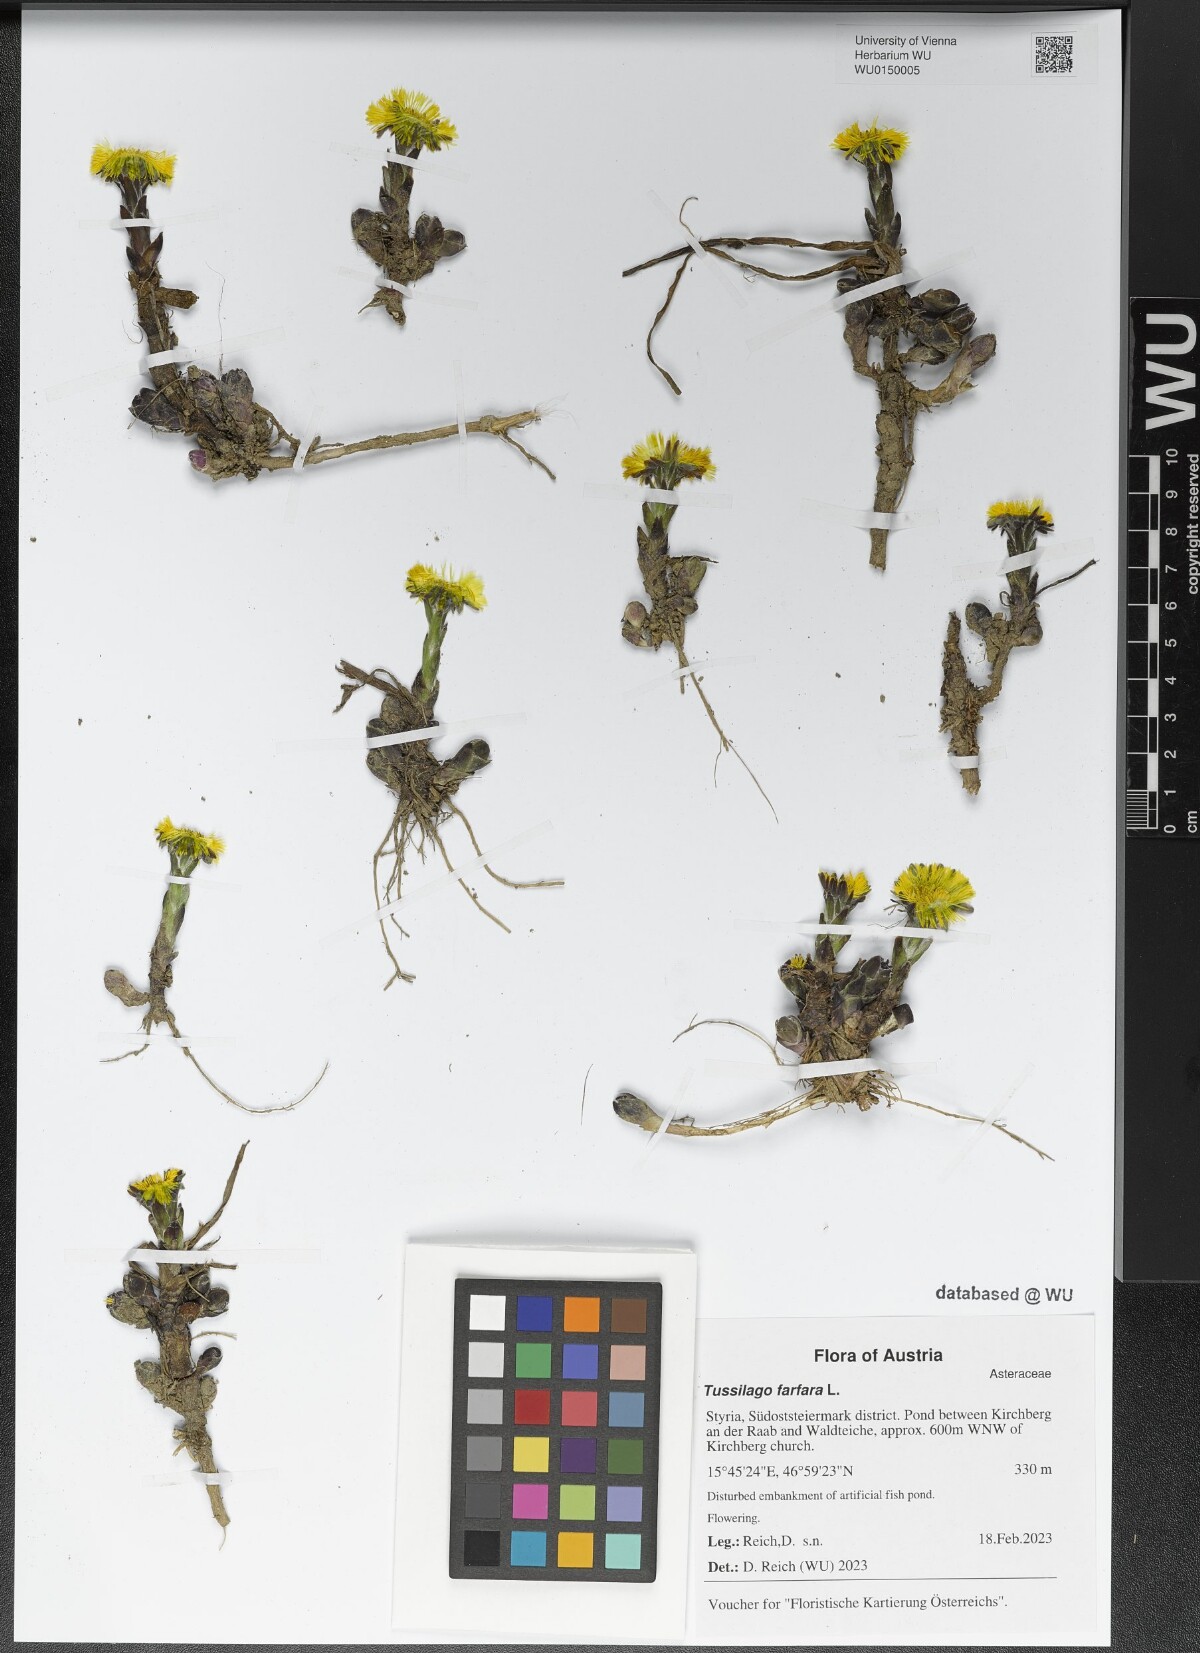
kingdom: Plantae
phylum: Tracheophyta
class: Magnoliopsida
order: Asterales
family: Asteraceae
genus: Tussilago
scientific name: Tussilago farfara
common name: Coltsfoot
